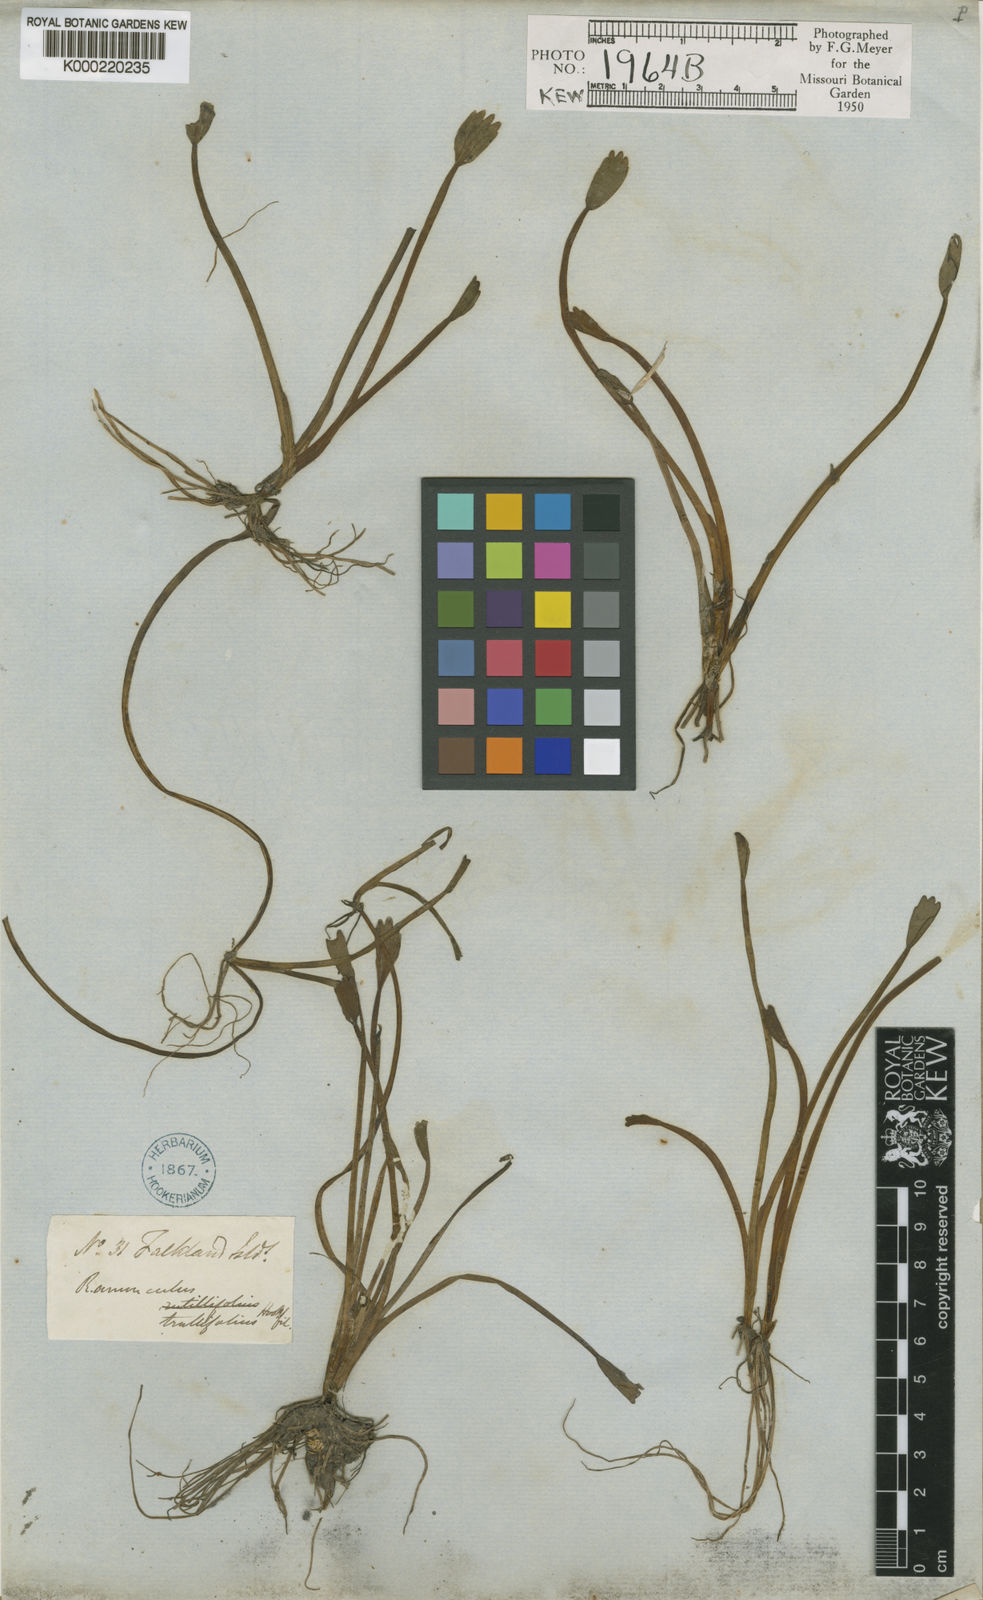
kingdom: Plantae
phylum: Tracheophyta
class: Magnoliopsida
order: Ranunculales
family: Ranunculaceae
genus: Ranunculus
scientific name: Ranunculus trullifolius
